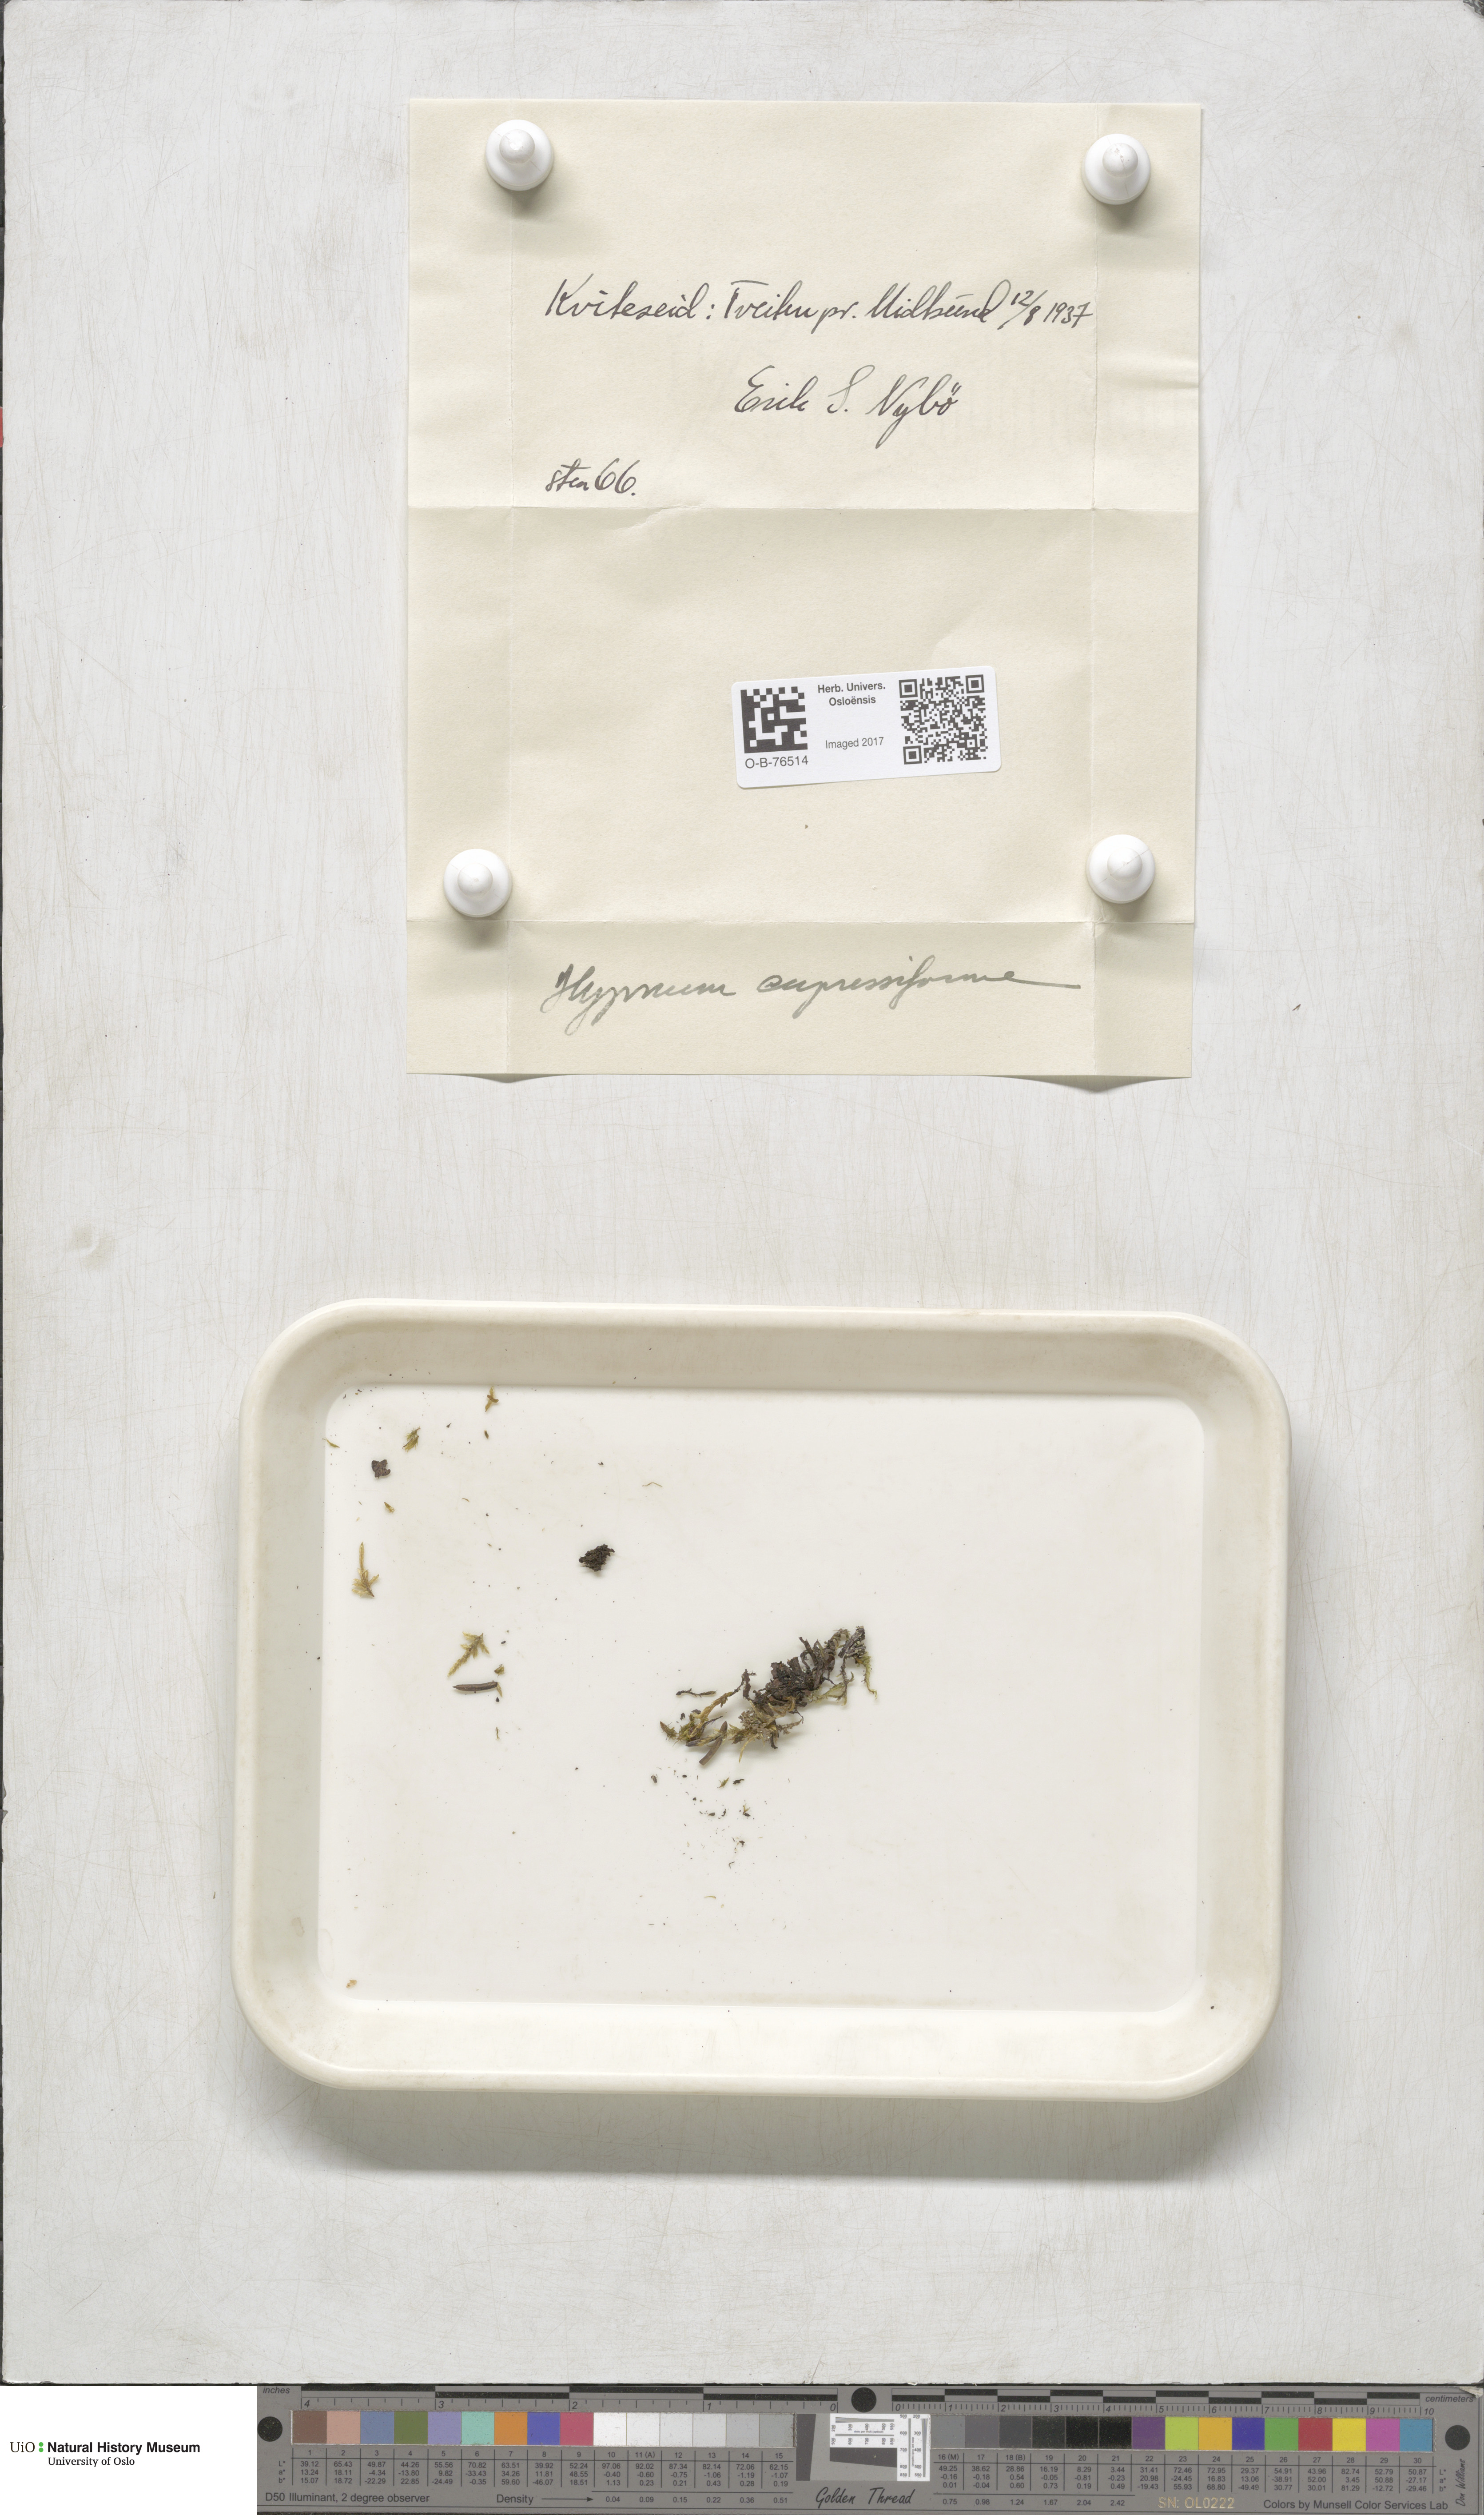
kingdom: Plantae
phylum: Bryophyta
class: Bryopsida
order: Hypnales
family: Hypnaceae
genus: Hypnum
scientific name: Hypnum cupressiforme
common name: Cypress-leaved plait-moss
